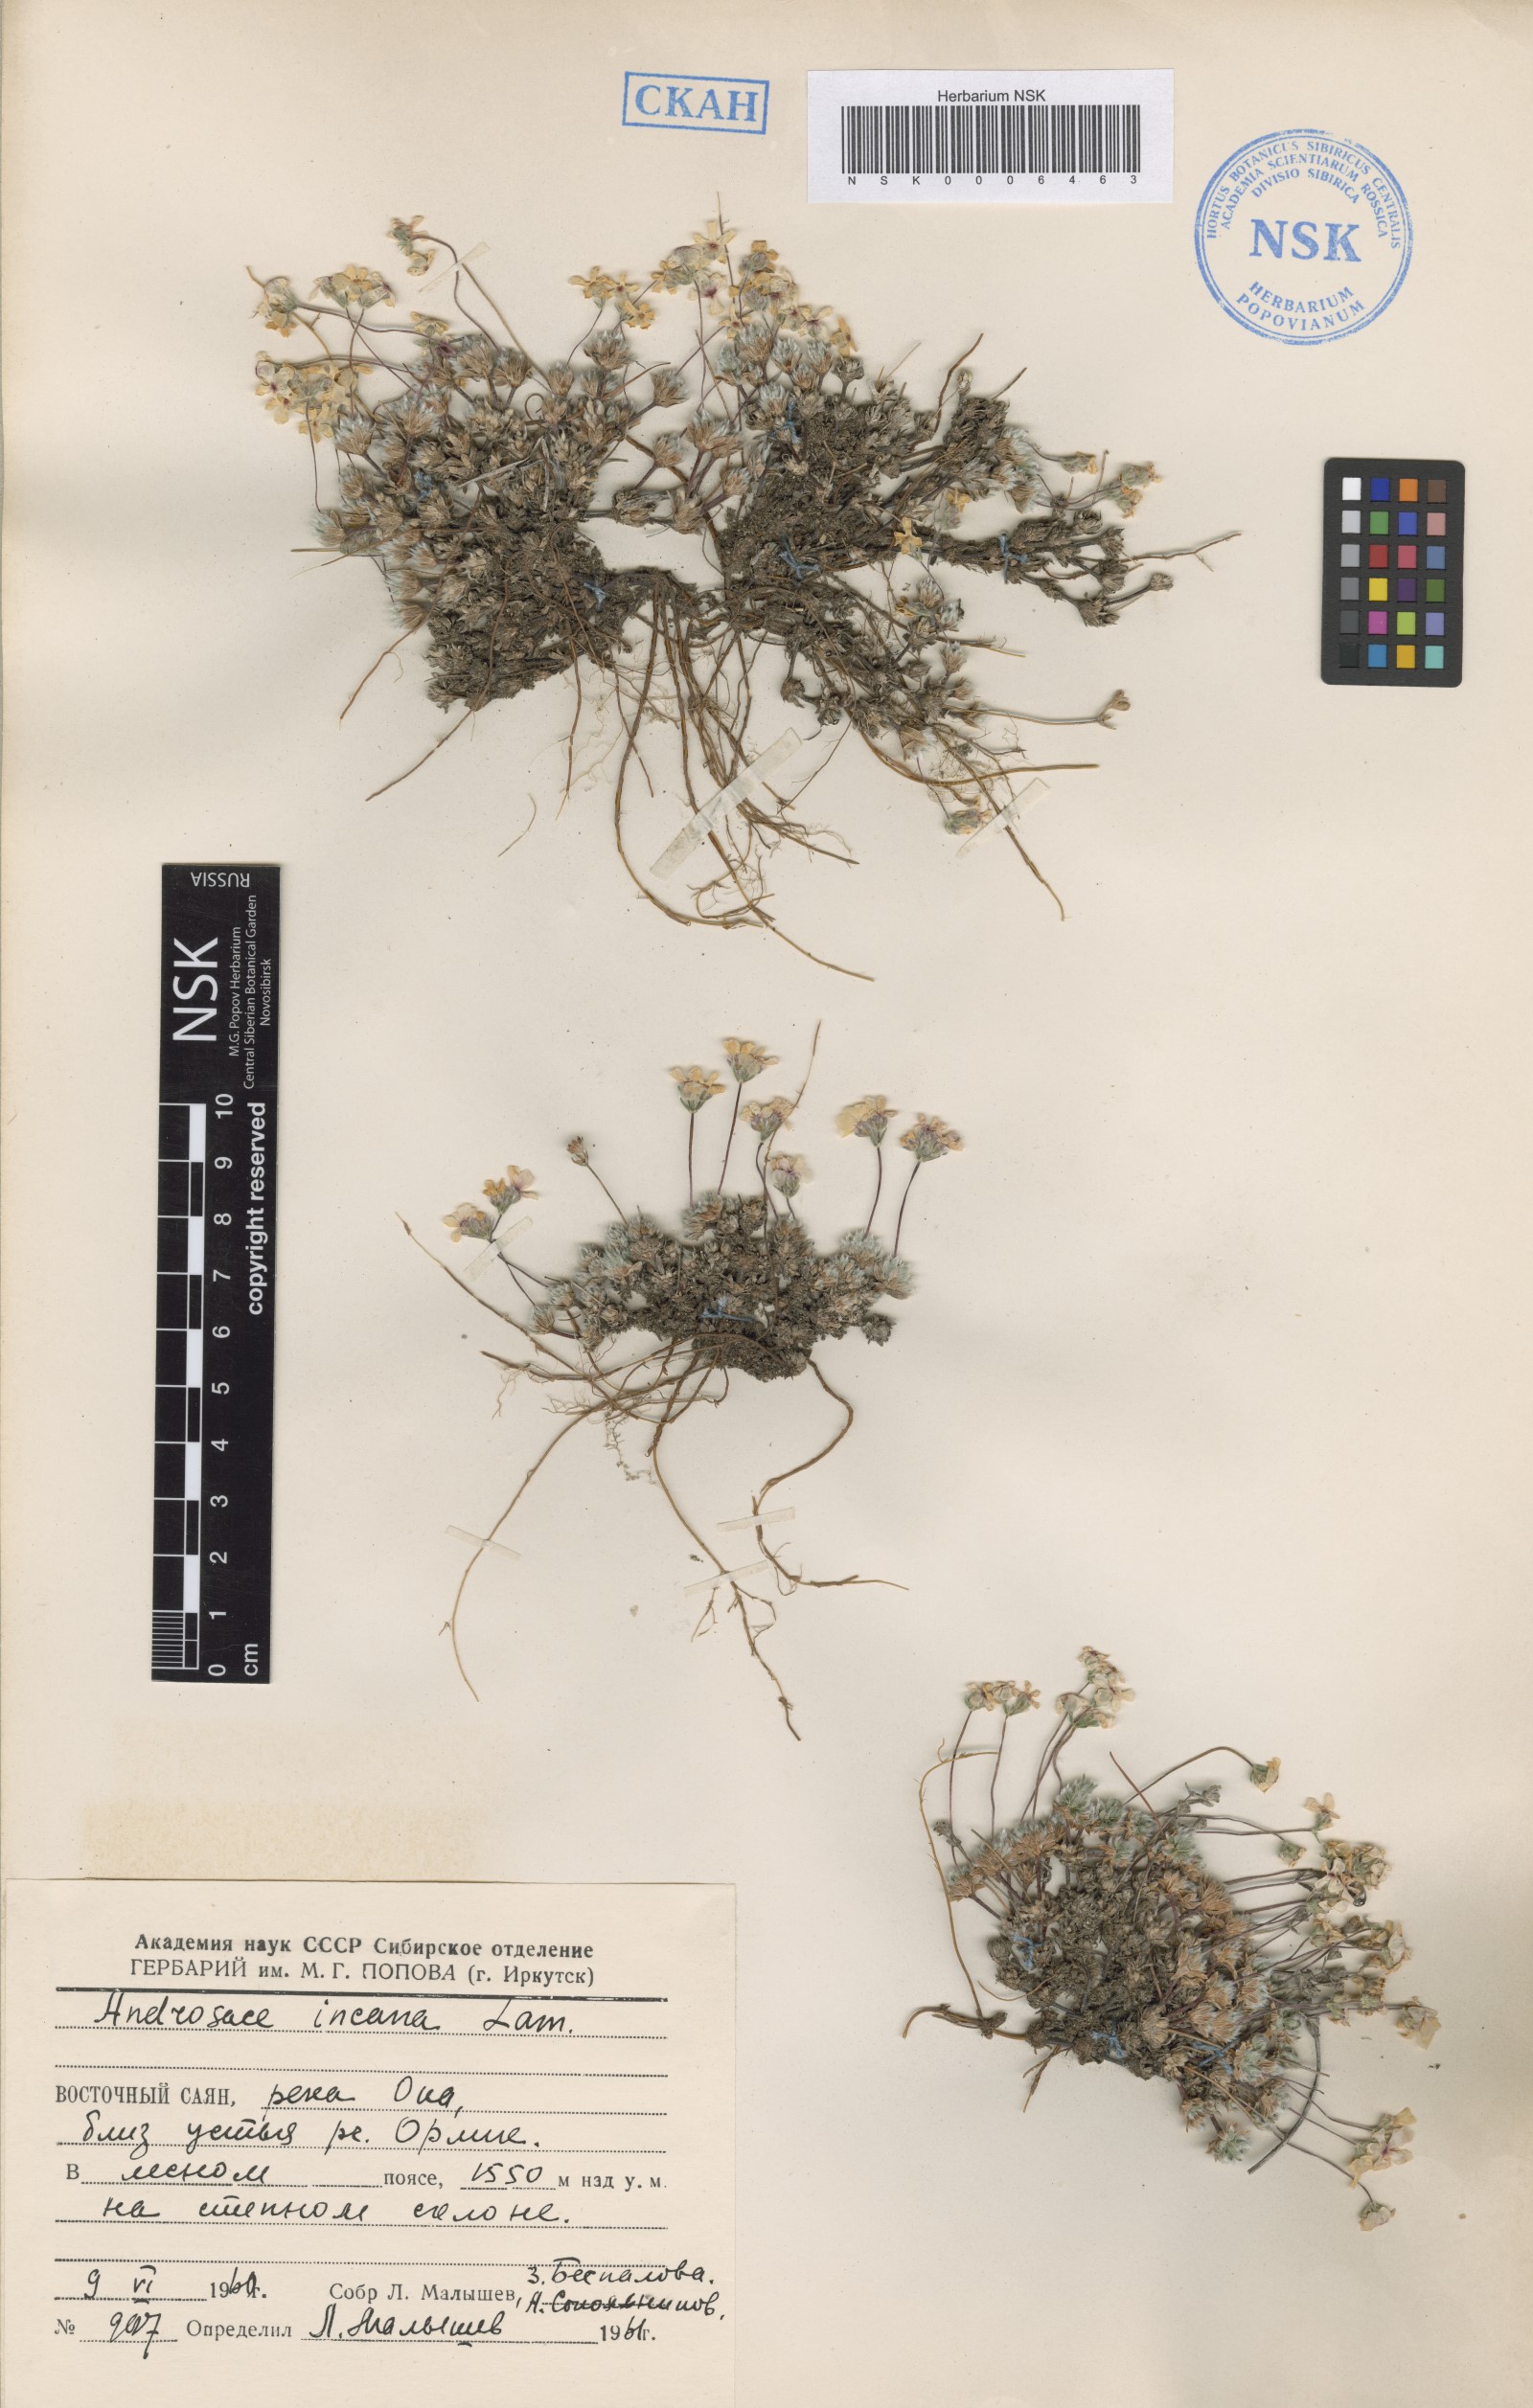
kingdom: Plantae
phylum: Tracheophyta
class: Magnoliopsida
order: Ericales
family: Primulaceae
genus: Androsace
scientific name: Androsace incana
